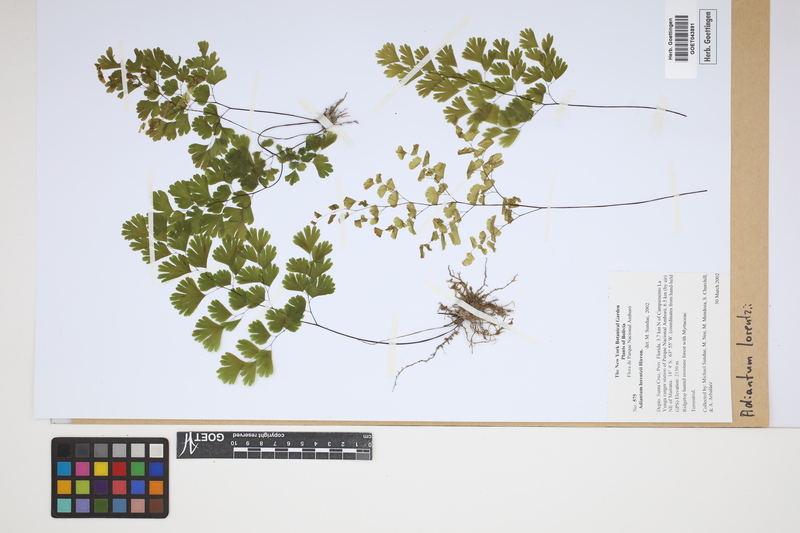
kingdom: Plantae
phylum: Tracheophyta
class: Polypodiopsida
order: Polypodiales
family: Pteridaceae
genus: Adiantum
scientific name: Adiantum lorentzii
